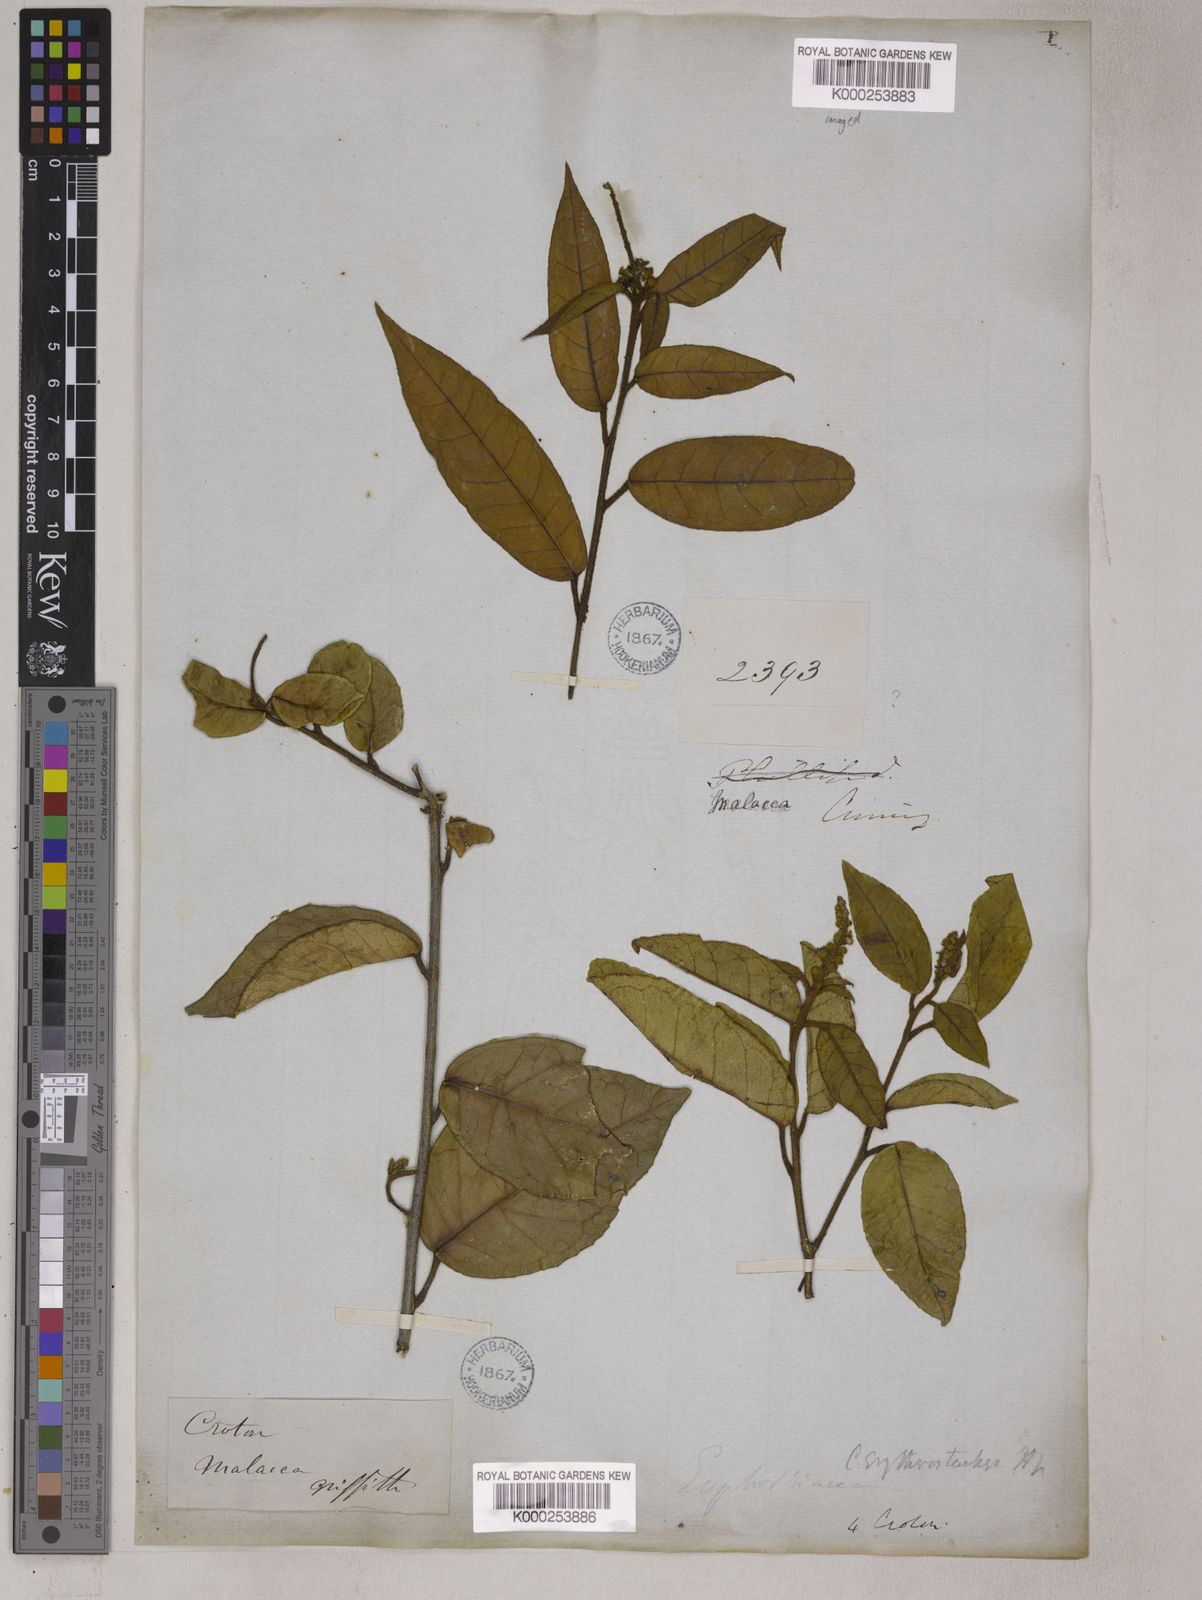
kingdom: Plantae
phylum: Tracheophyta
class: Magnoliopsida
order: Malpighiales
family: Euphorbiaceae
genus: Croton
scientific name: Croton erythrostachys
